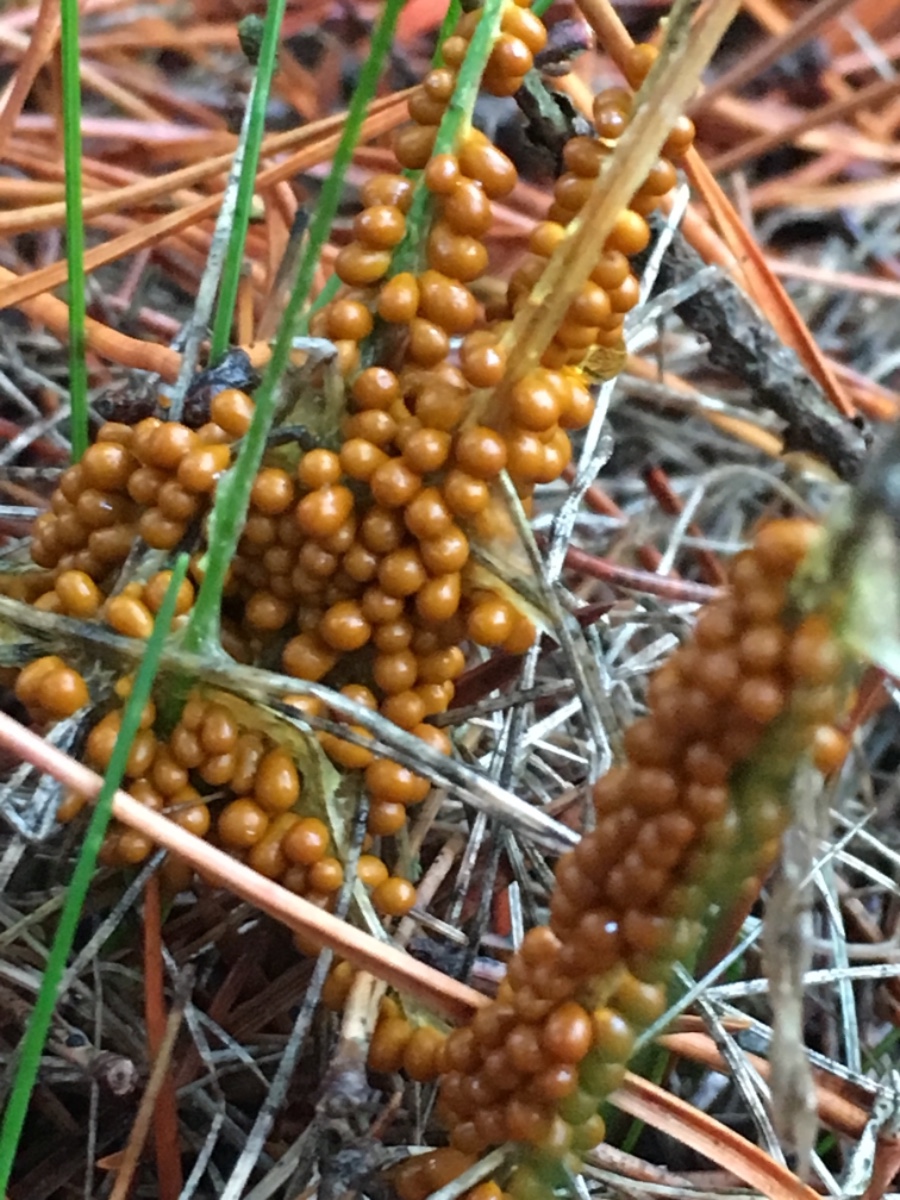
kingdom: Protozoa
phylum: Mycetozoa
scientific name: Mycetozoa
